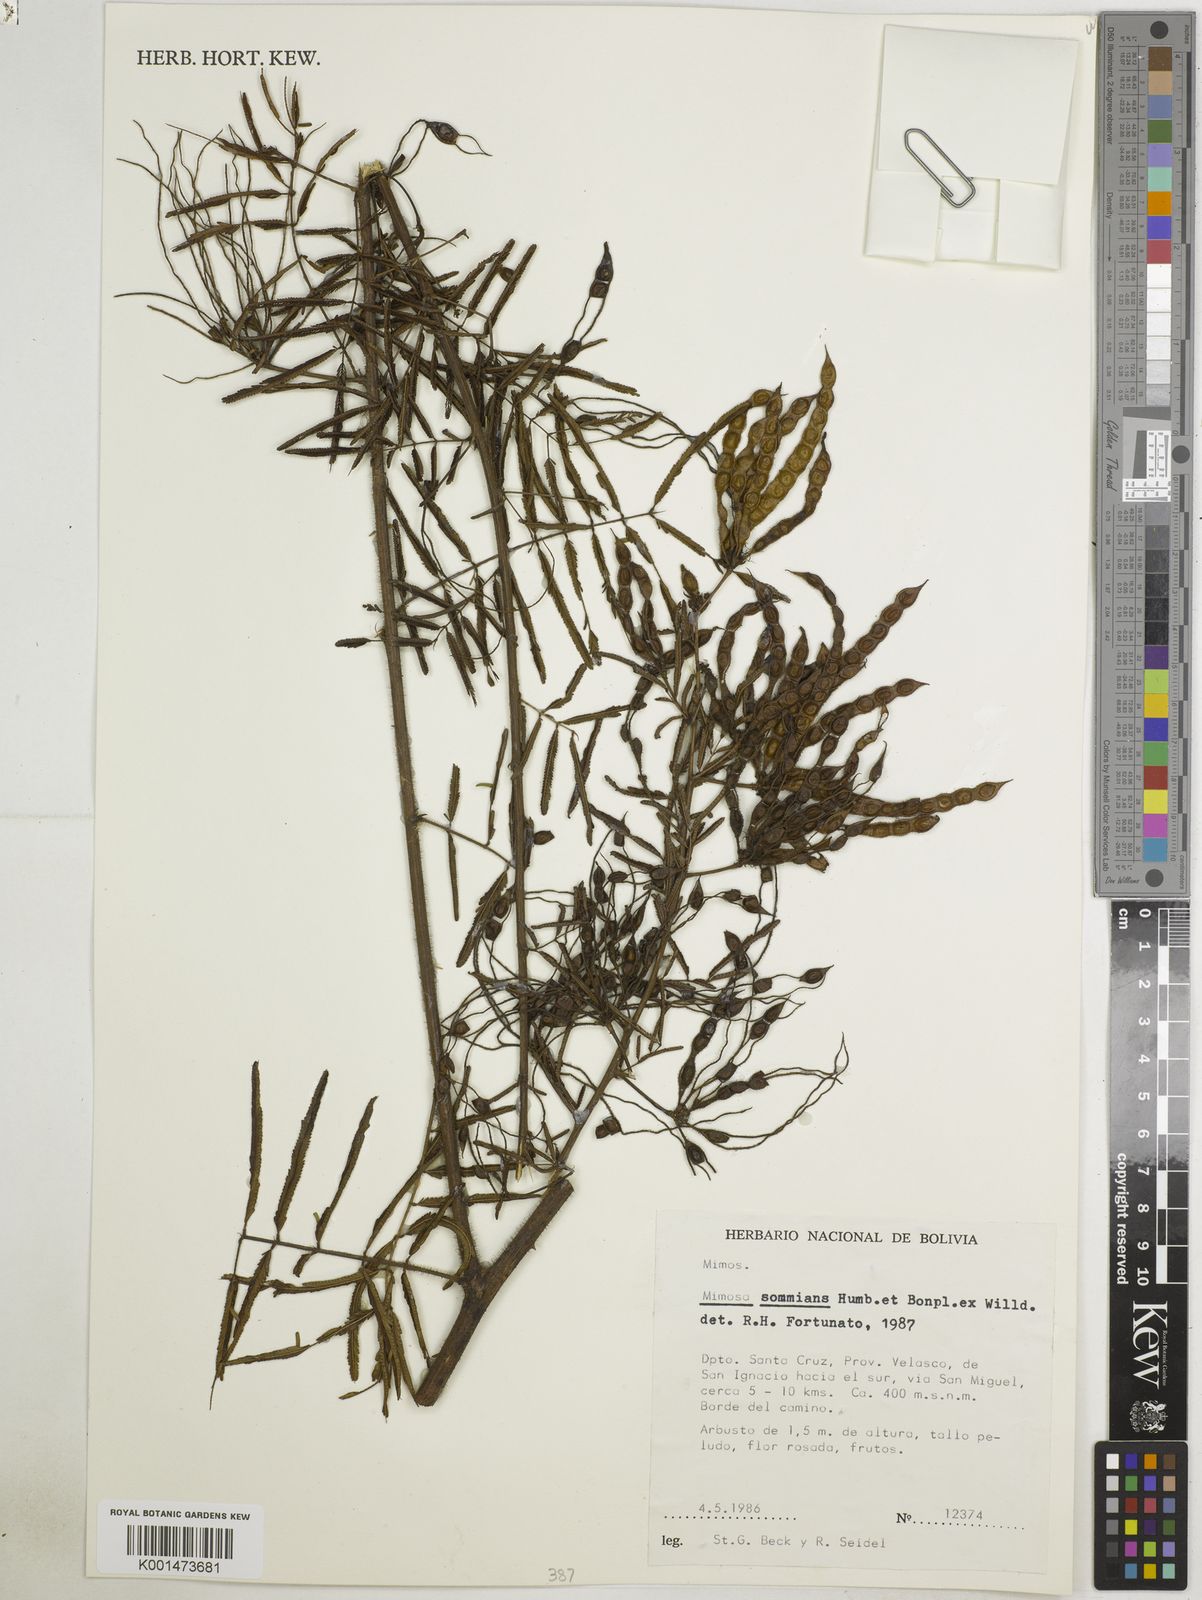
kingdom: Plantae
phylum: Tracheophyta
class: Magnoliopsida
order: Fabales
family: Fabaceae
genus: Mimosa
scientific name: Mimosa somnians
